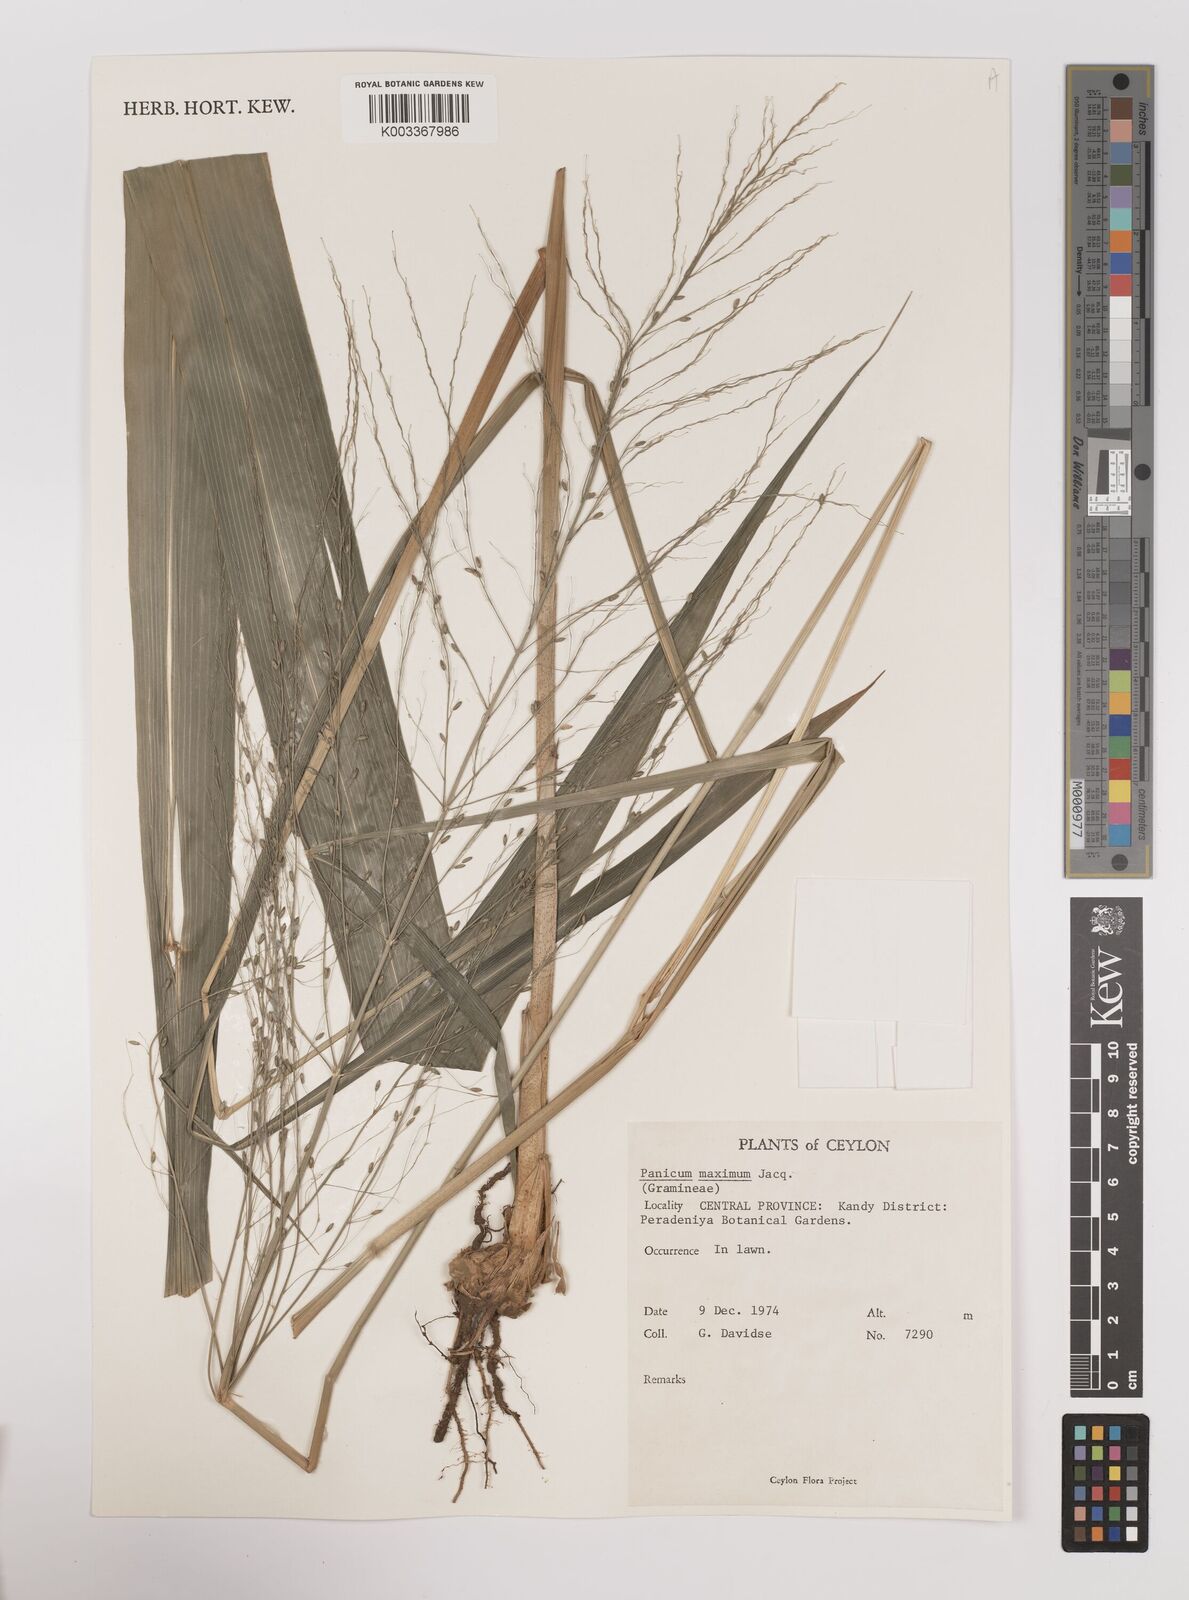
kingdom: Plantae
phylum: Tracheophyta
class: Liliopsida
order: Poales
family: Poaceae
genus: Megathyrsus
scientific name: Megathyrsus maximus
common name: Guineagrass
